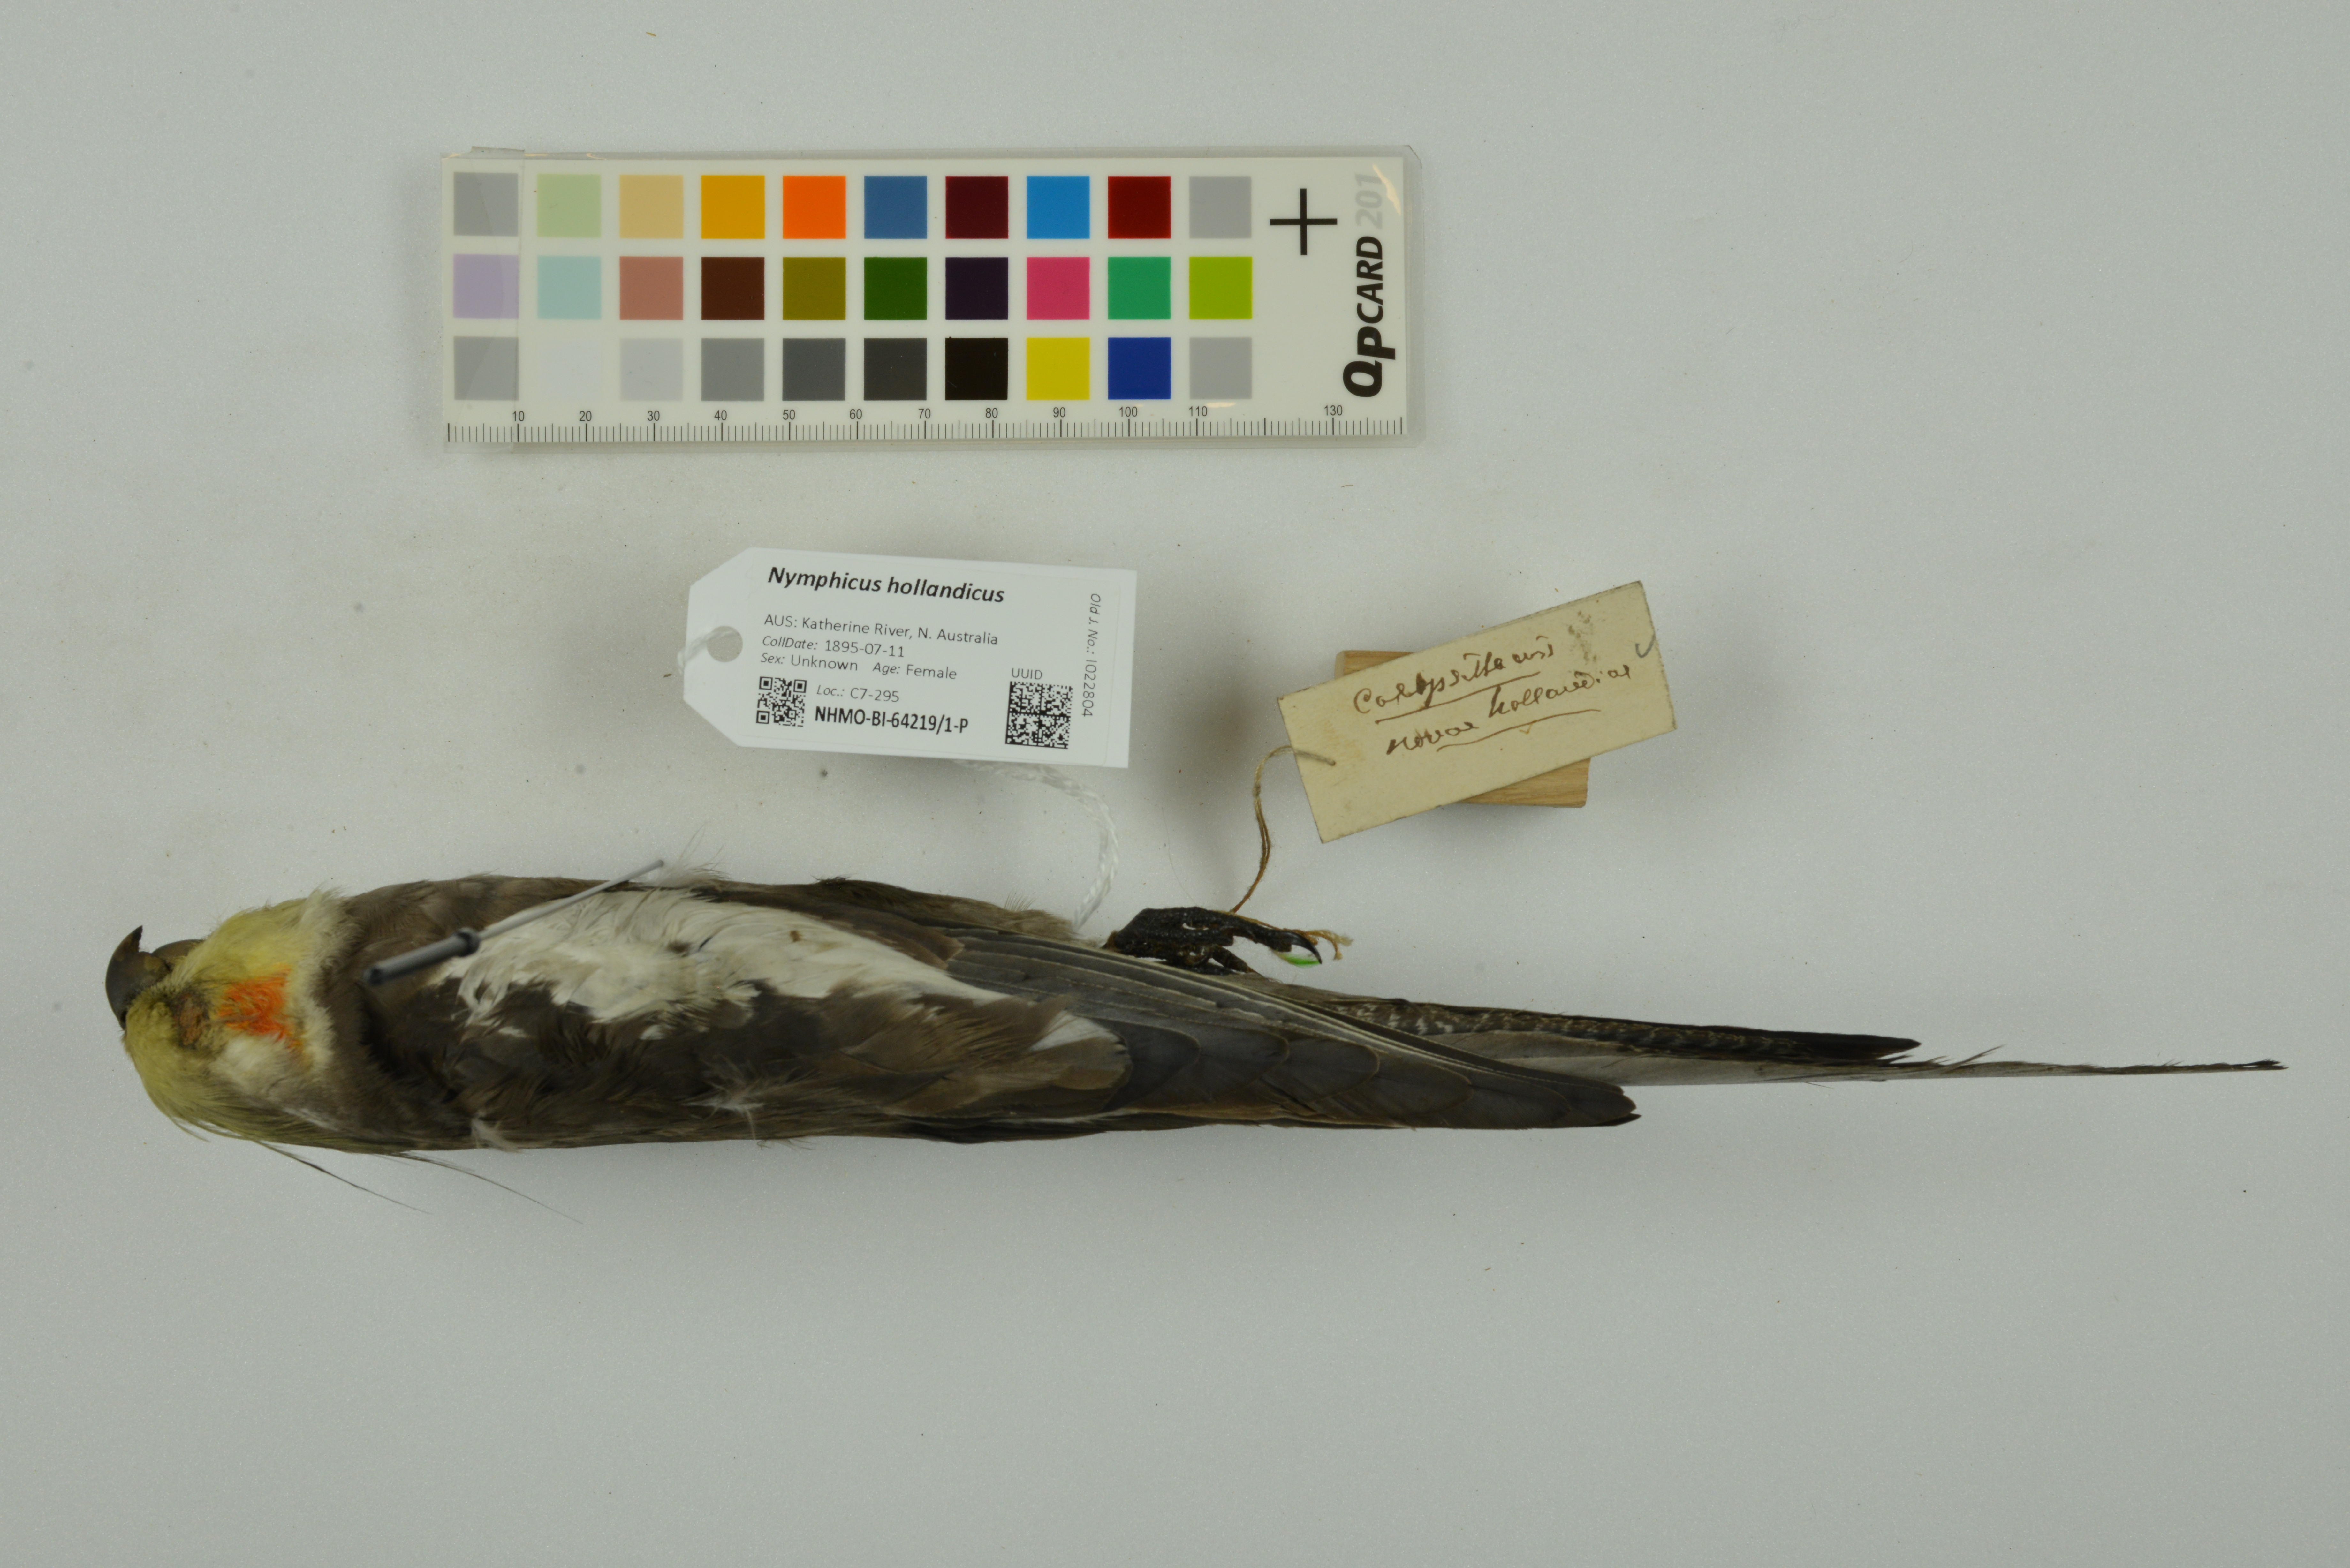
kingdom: Animalia
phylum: Chordata
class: Aves
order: Psittaciformes
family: Psittacidae
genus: Nymphicus
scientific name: Nymphicus hollandicus
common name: Cockatiel
